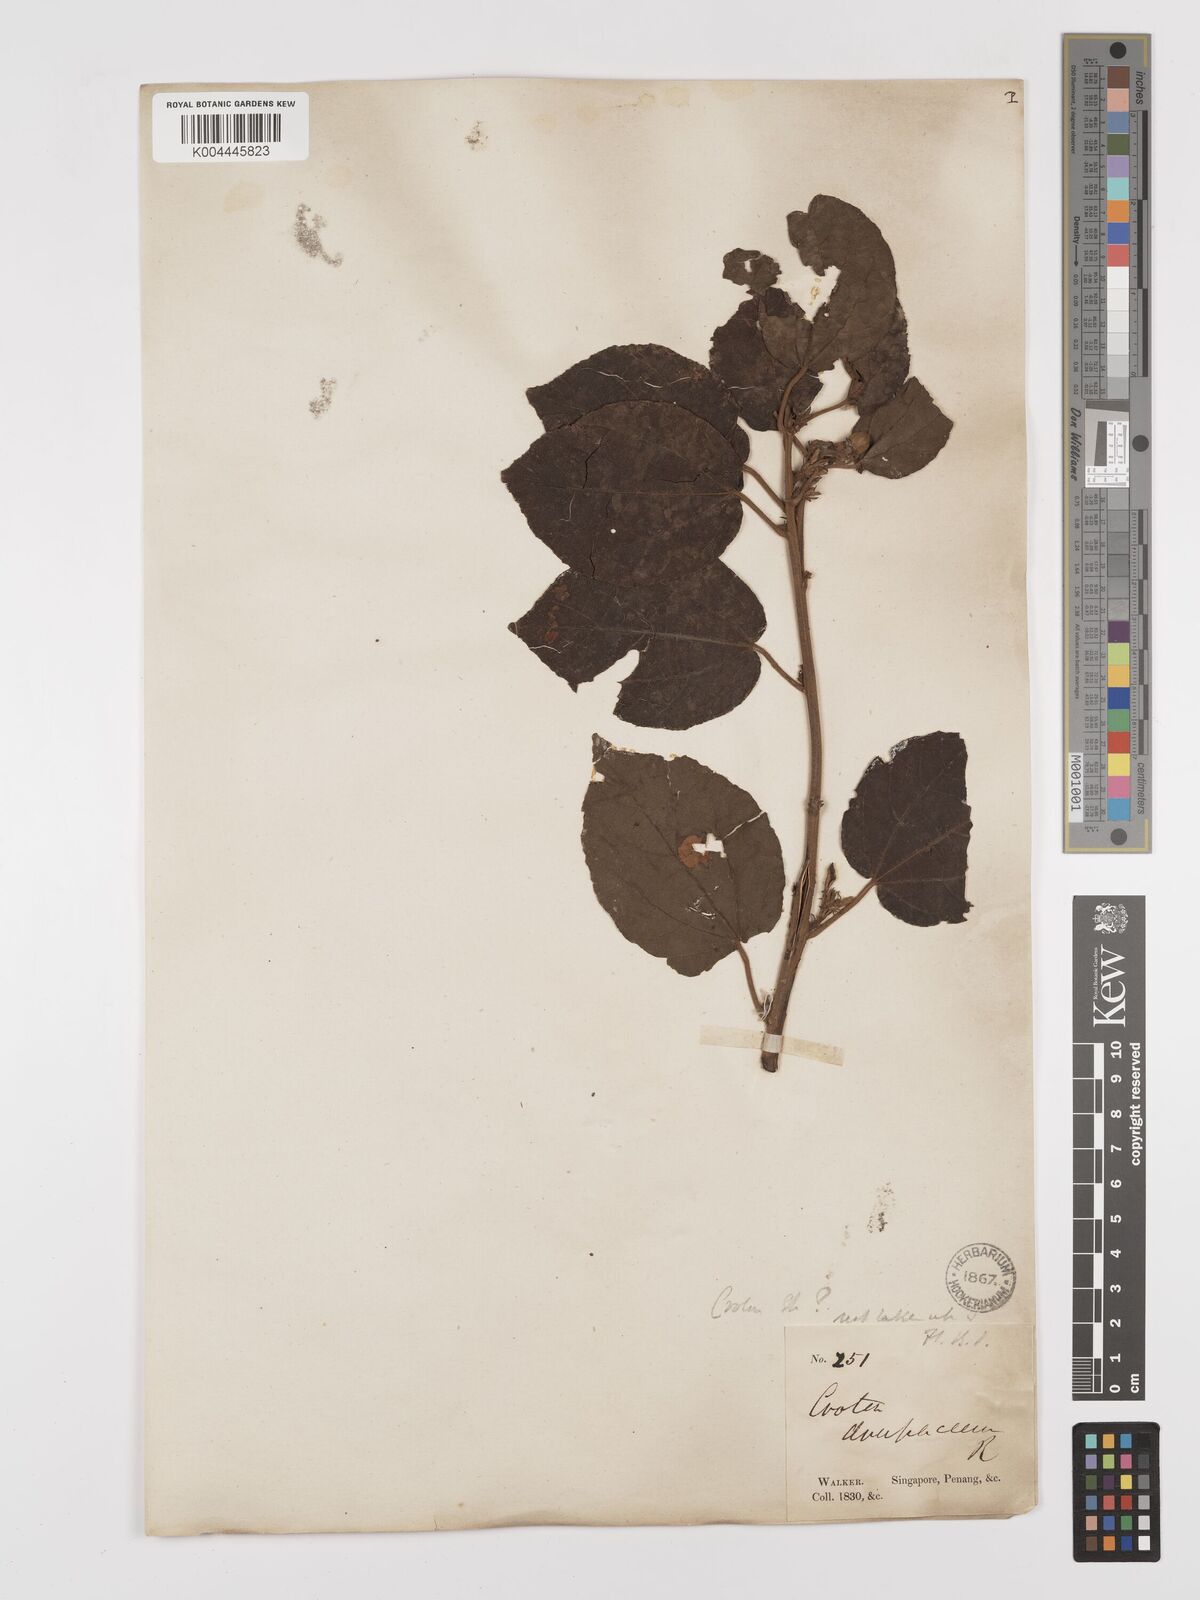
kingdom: Plantae
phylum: Tracheophyta
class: Magnoliopsida
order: Malpighiales
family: Euphorbiaceae
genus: Croton
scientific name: Croton caudatus
